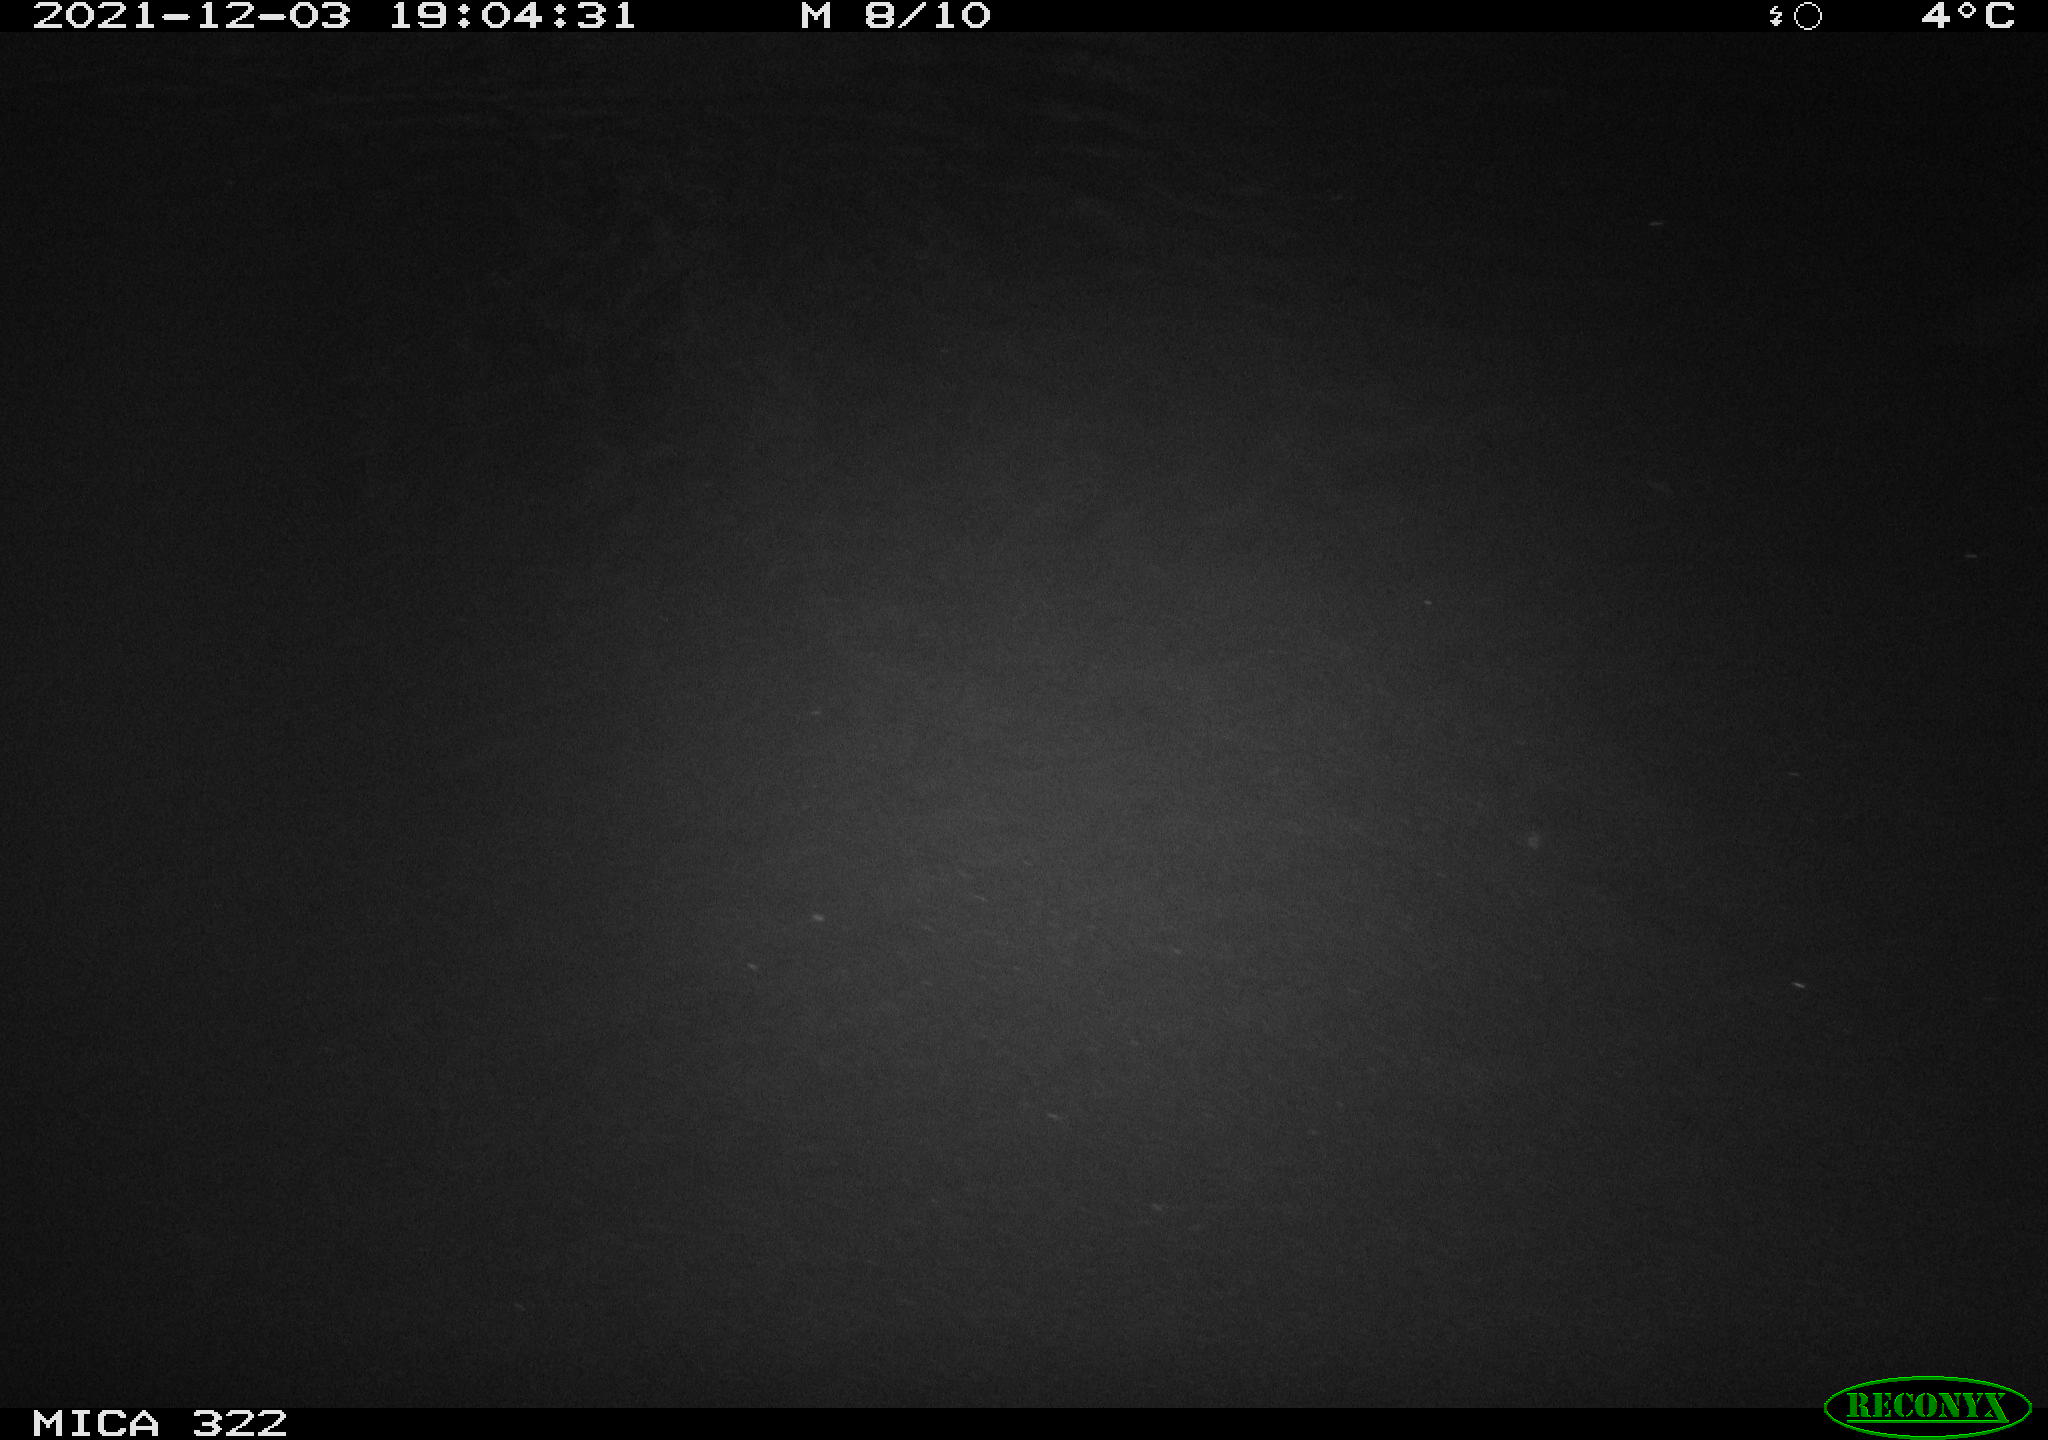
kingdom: Animalia
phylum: Chordata
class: Mammalia
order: Rodentia
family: Muridae
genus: Rattus
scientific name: Rattus norvegicus
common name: Brown rat
